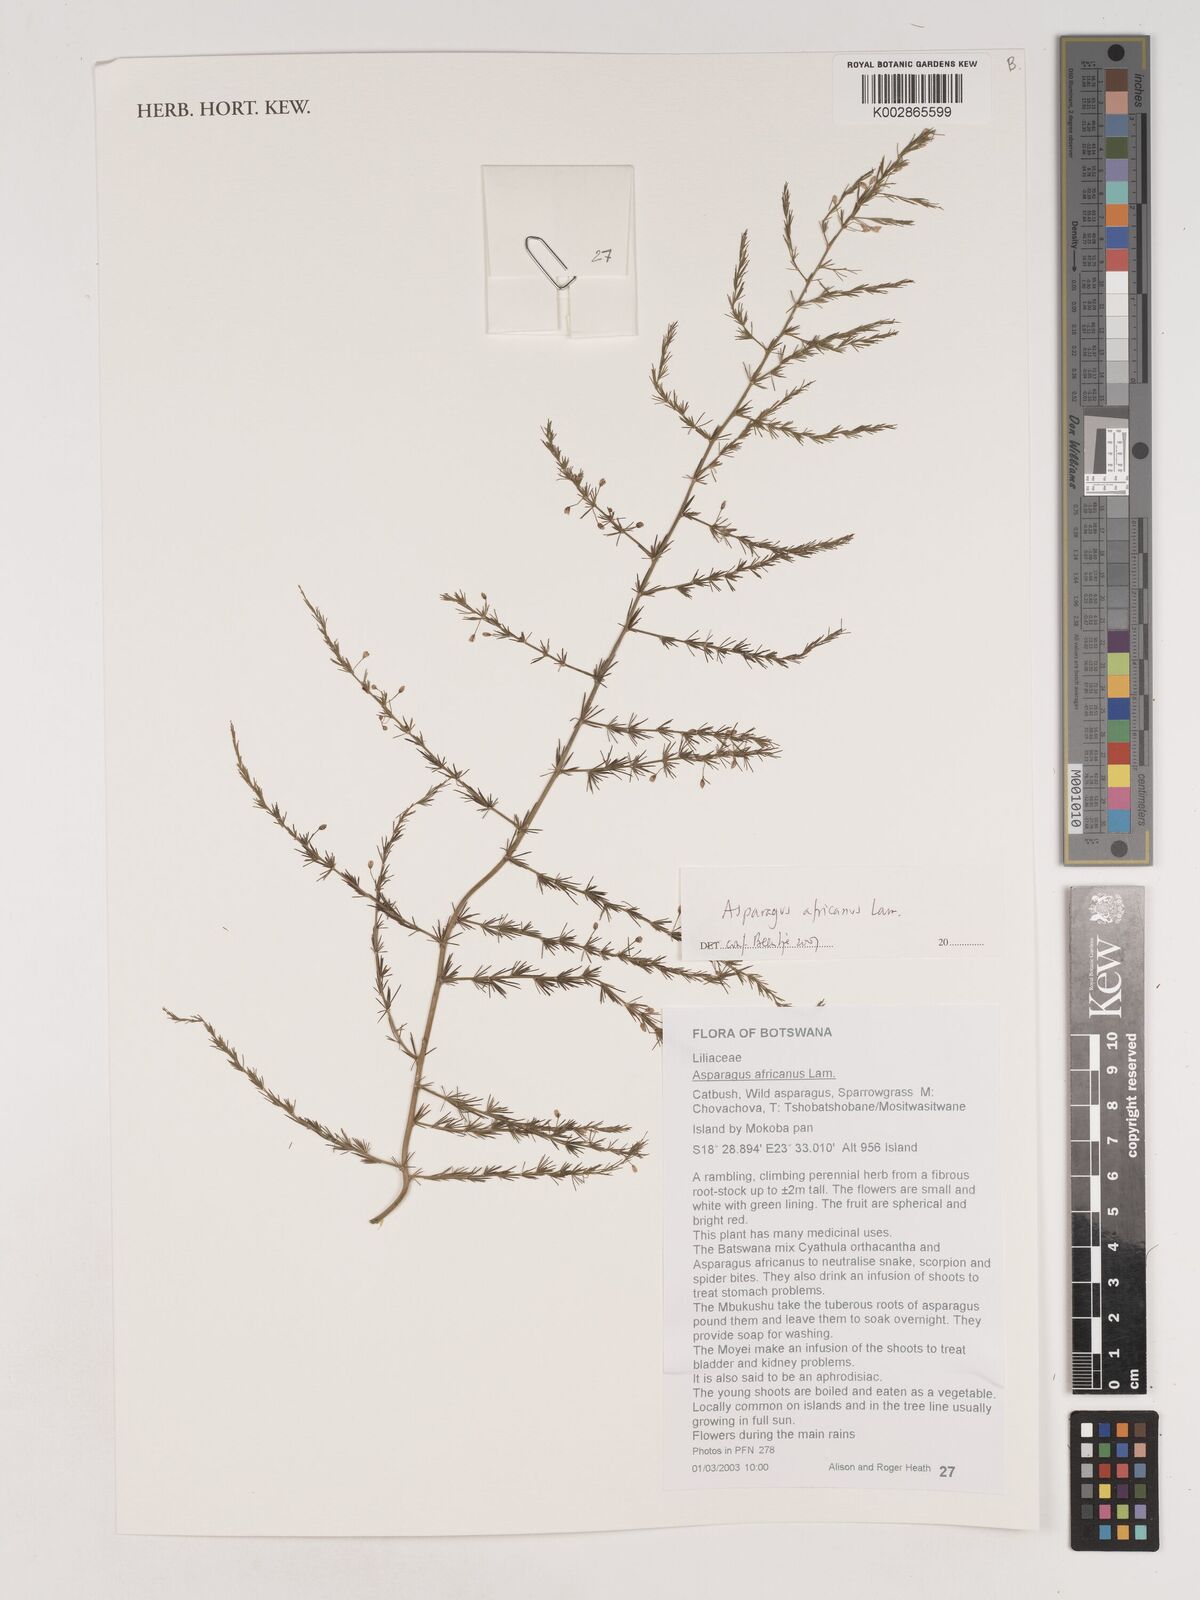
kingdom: Plantae
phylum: Tracheophyta
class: Liliopsida
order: Asparagales
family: Asparagaceae
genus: Asparagus
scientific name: Asparagus africanus
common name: Asparagus-fern
